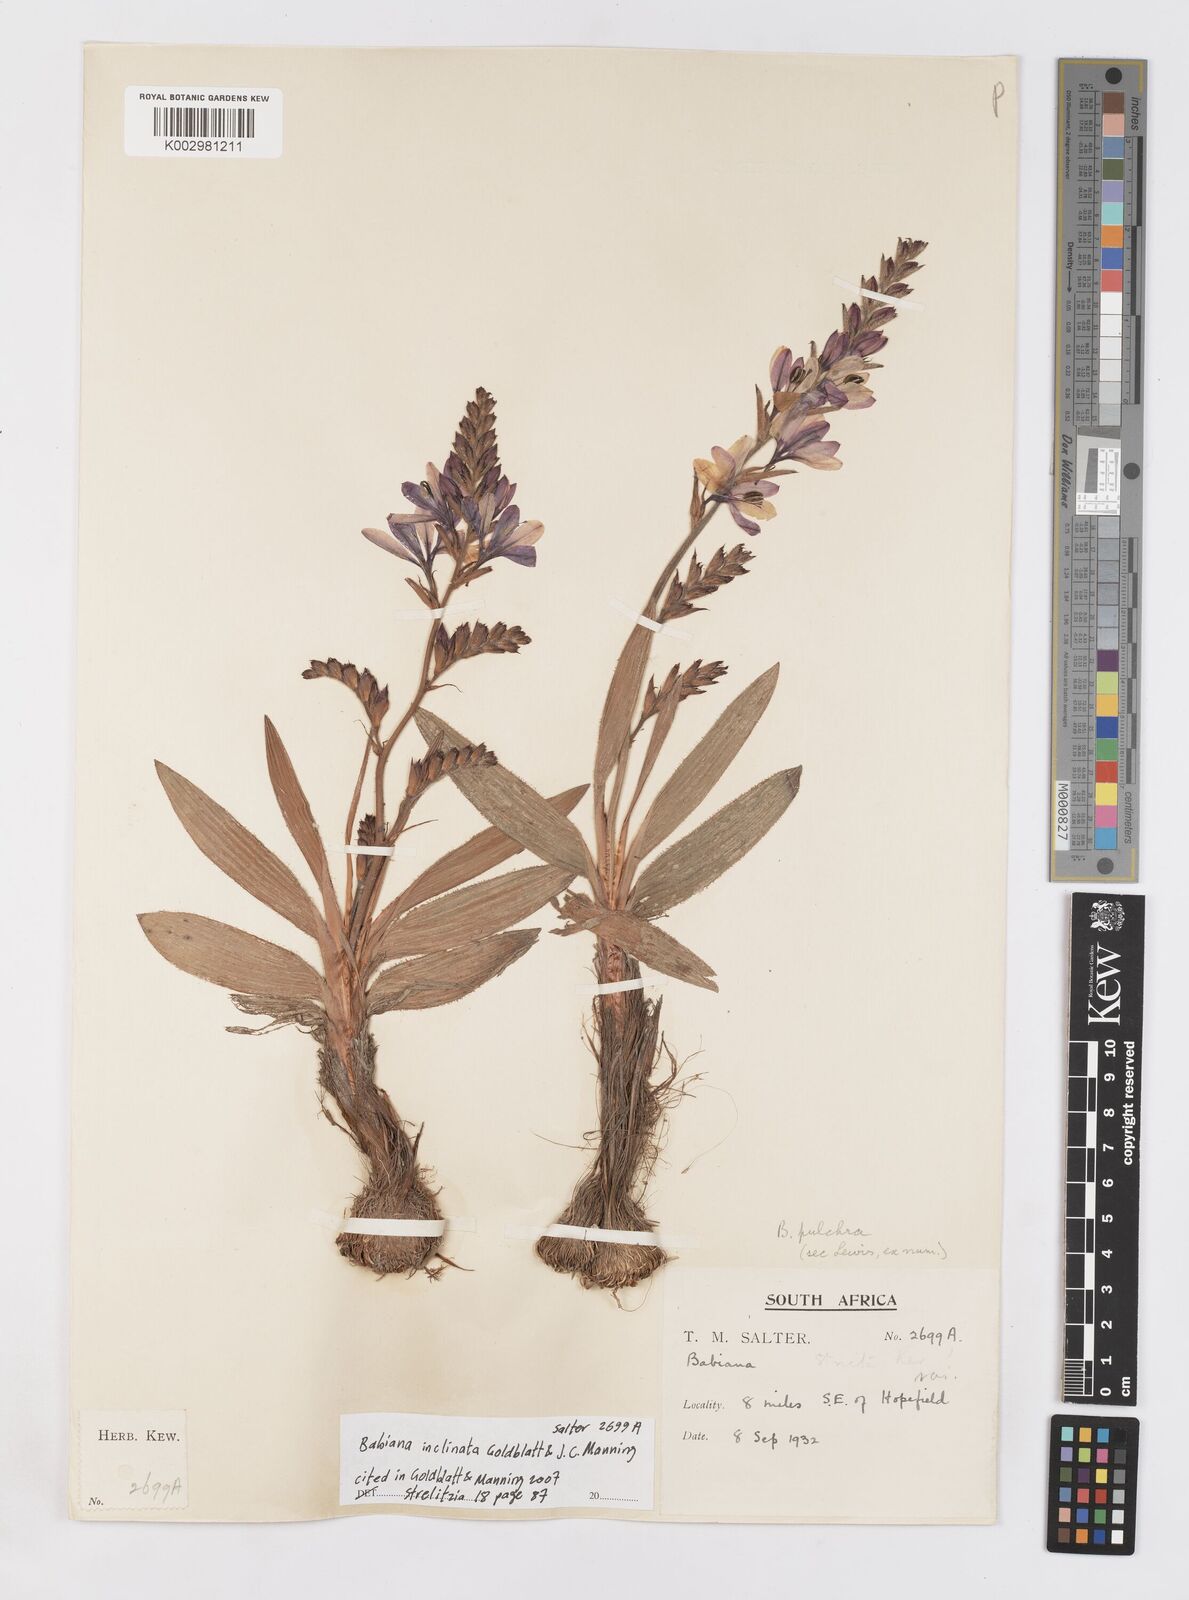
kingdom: Plantae
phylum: Tracheophyta
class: Liliopsida
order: Asparagales
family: Iridaceae
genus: Babiana
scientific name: Babiana inclinata
